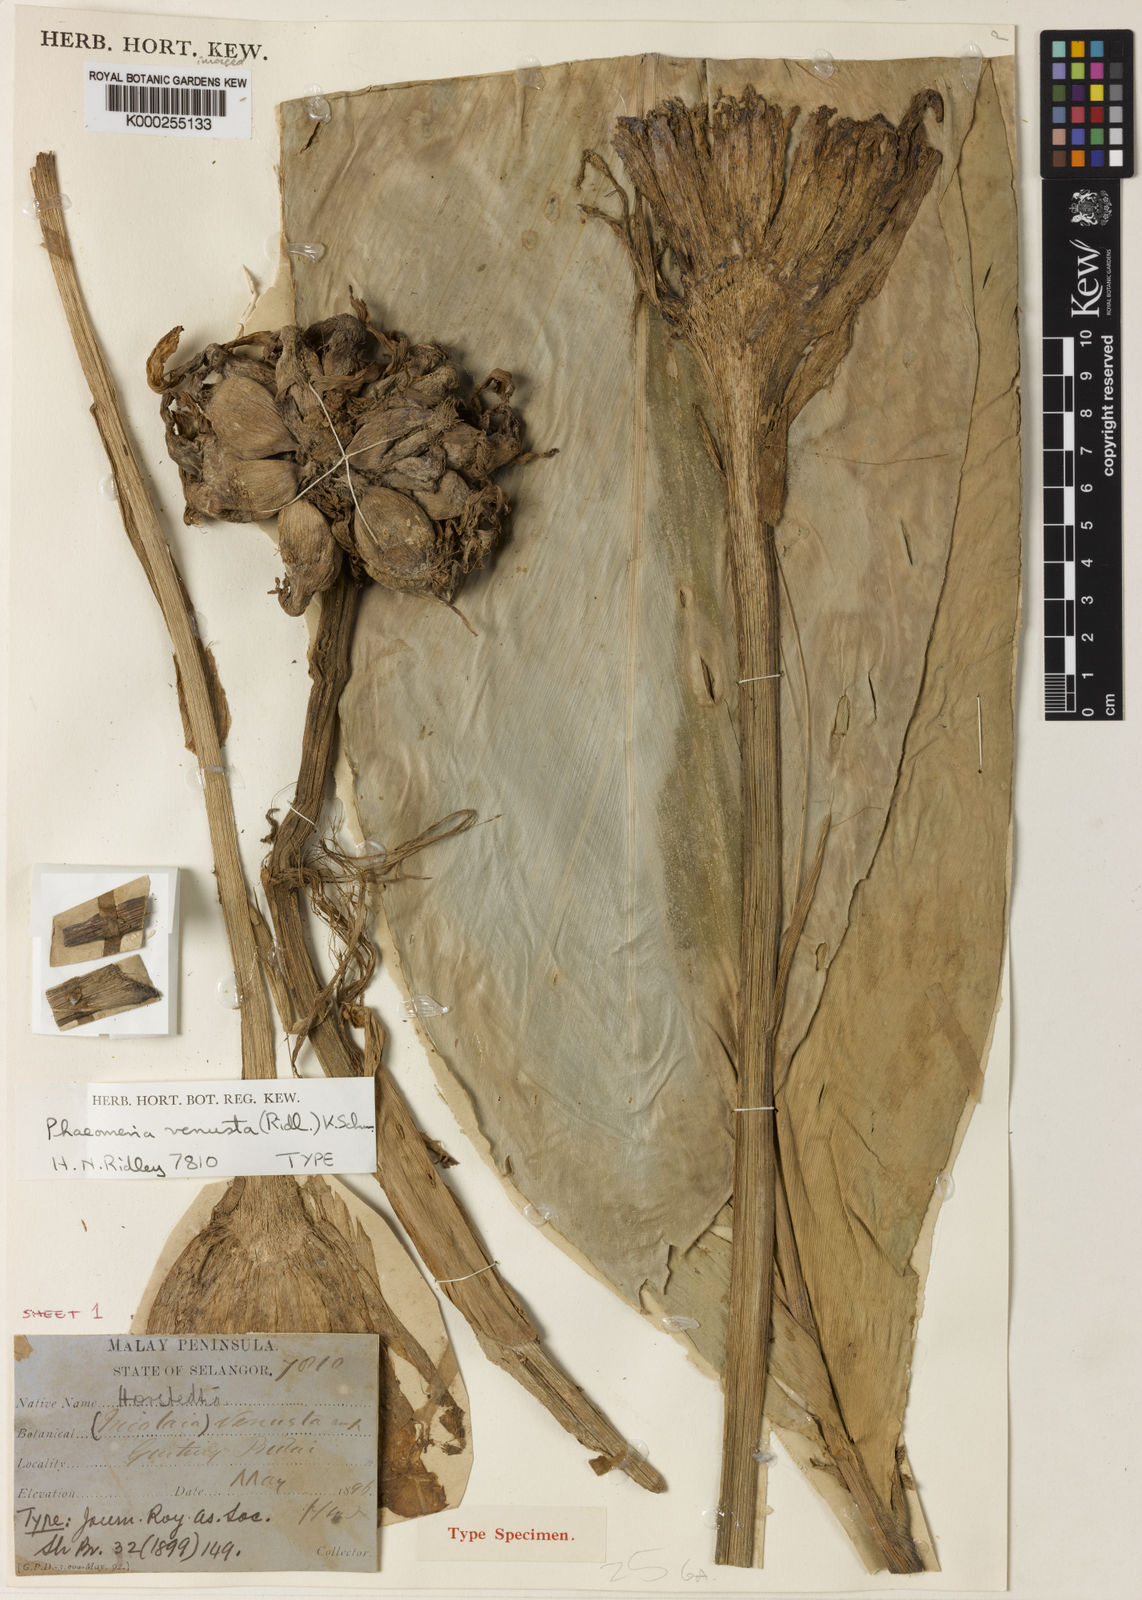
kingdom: Plantae
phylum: Tracheophyta
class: Liliopsida
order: Zingiberales
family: Zingiberaceae
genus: Etlingera
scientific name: Etlingera venusta
